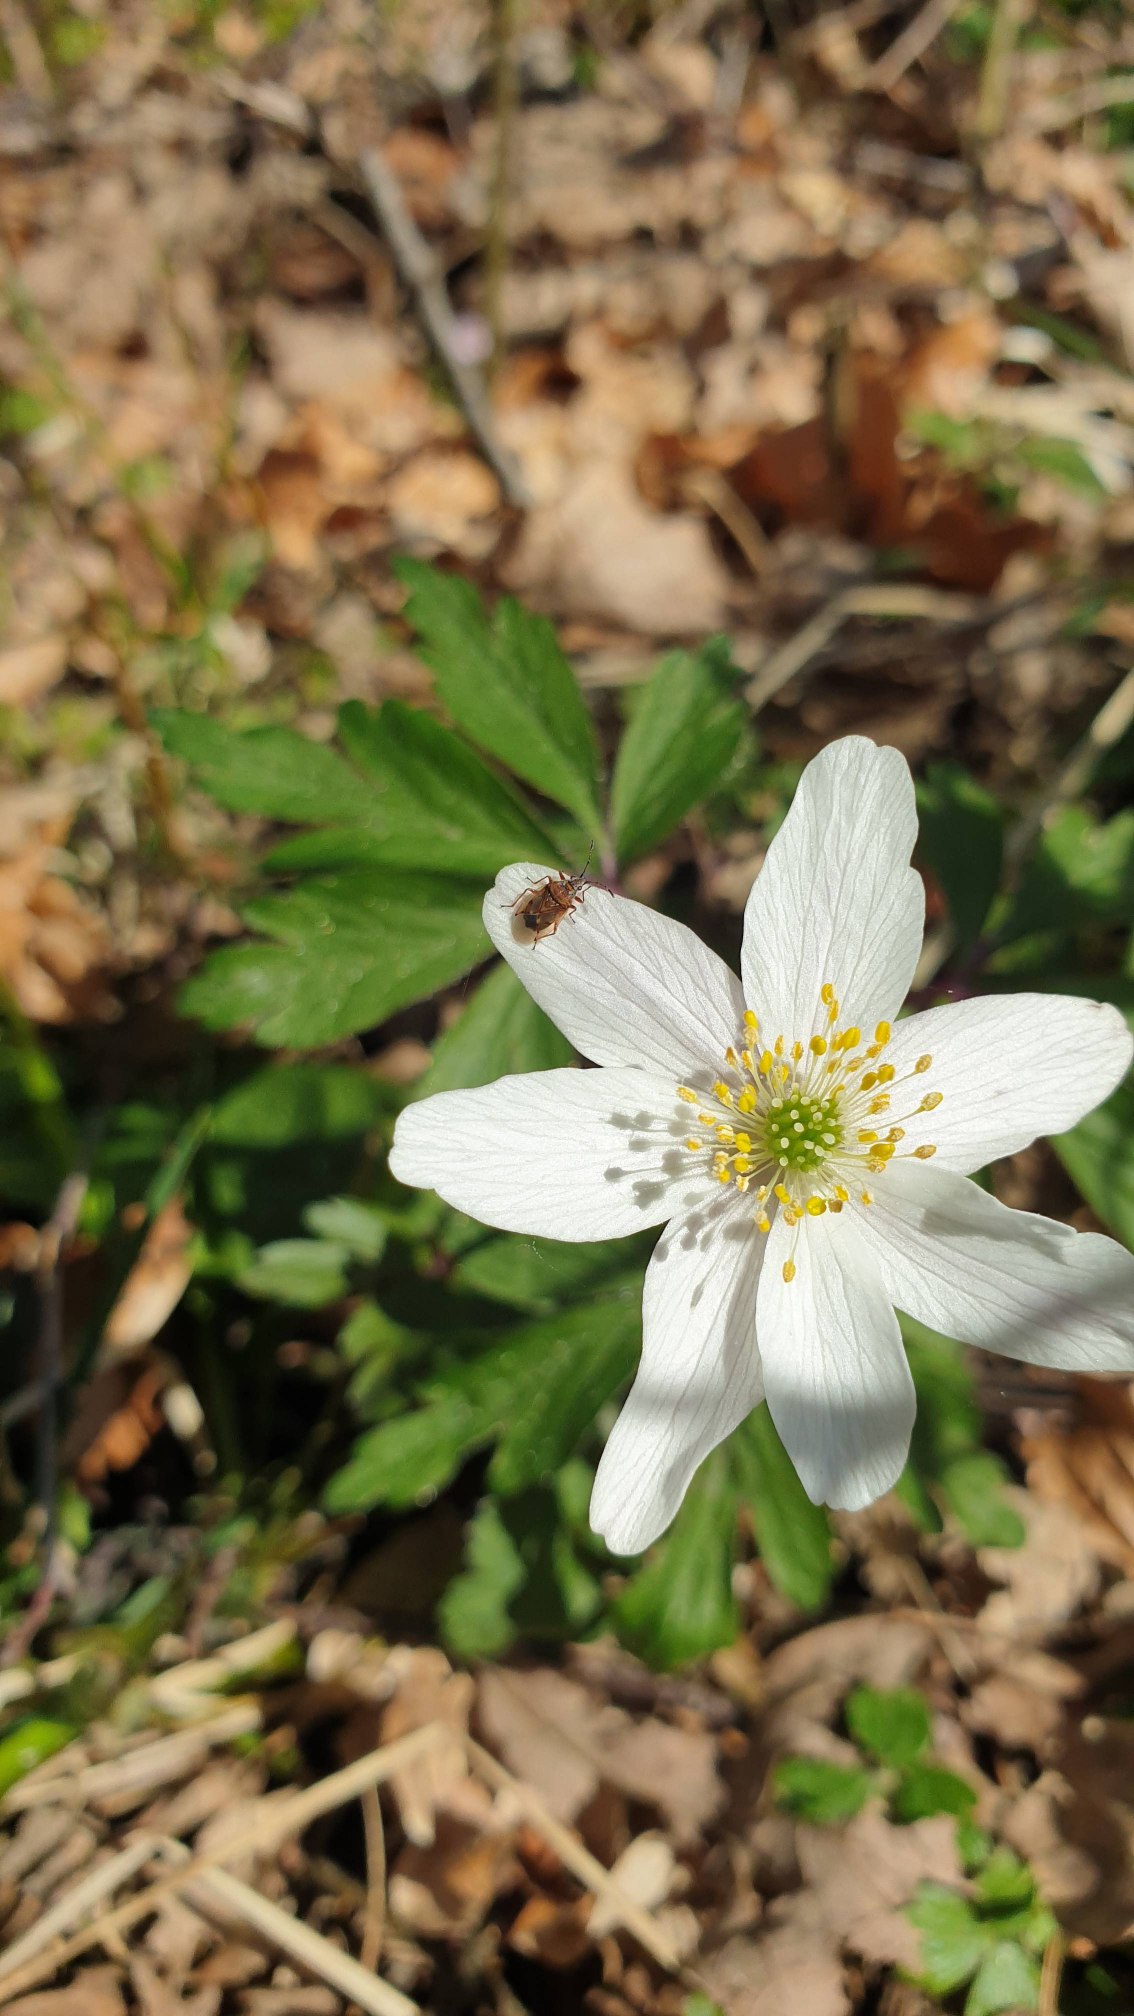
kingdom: Animalia
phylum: Arthropoda
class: Insecta
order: Hemiptera
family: Lygaeidae
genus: Kleidocerys
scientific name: Kleidocerys resedae
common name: Birkefrøtæge
